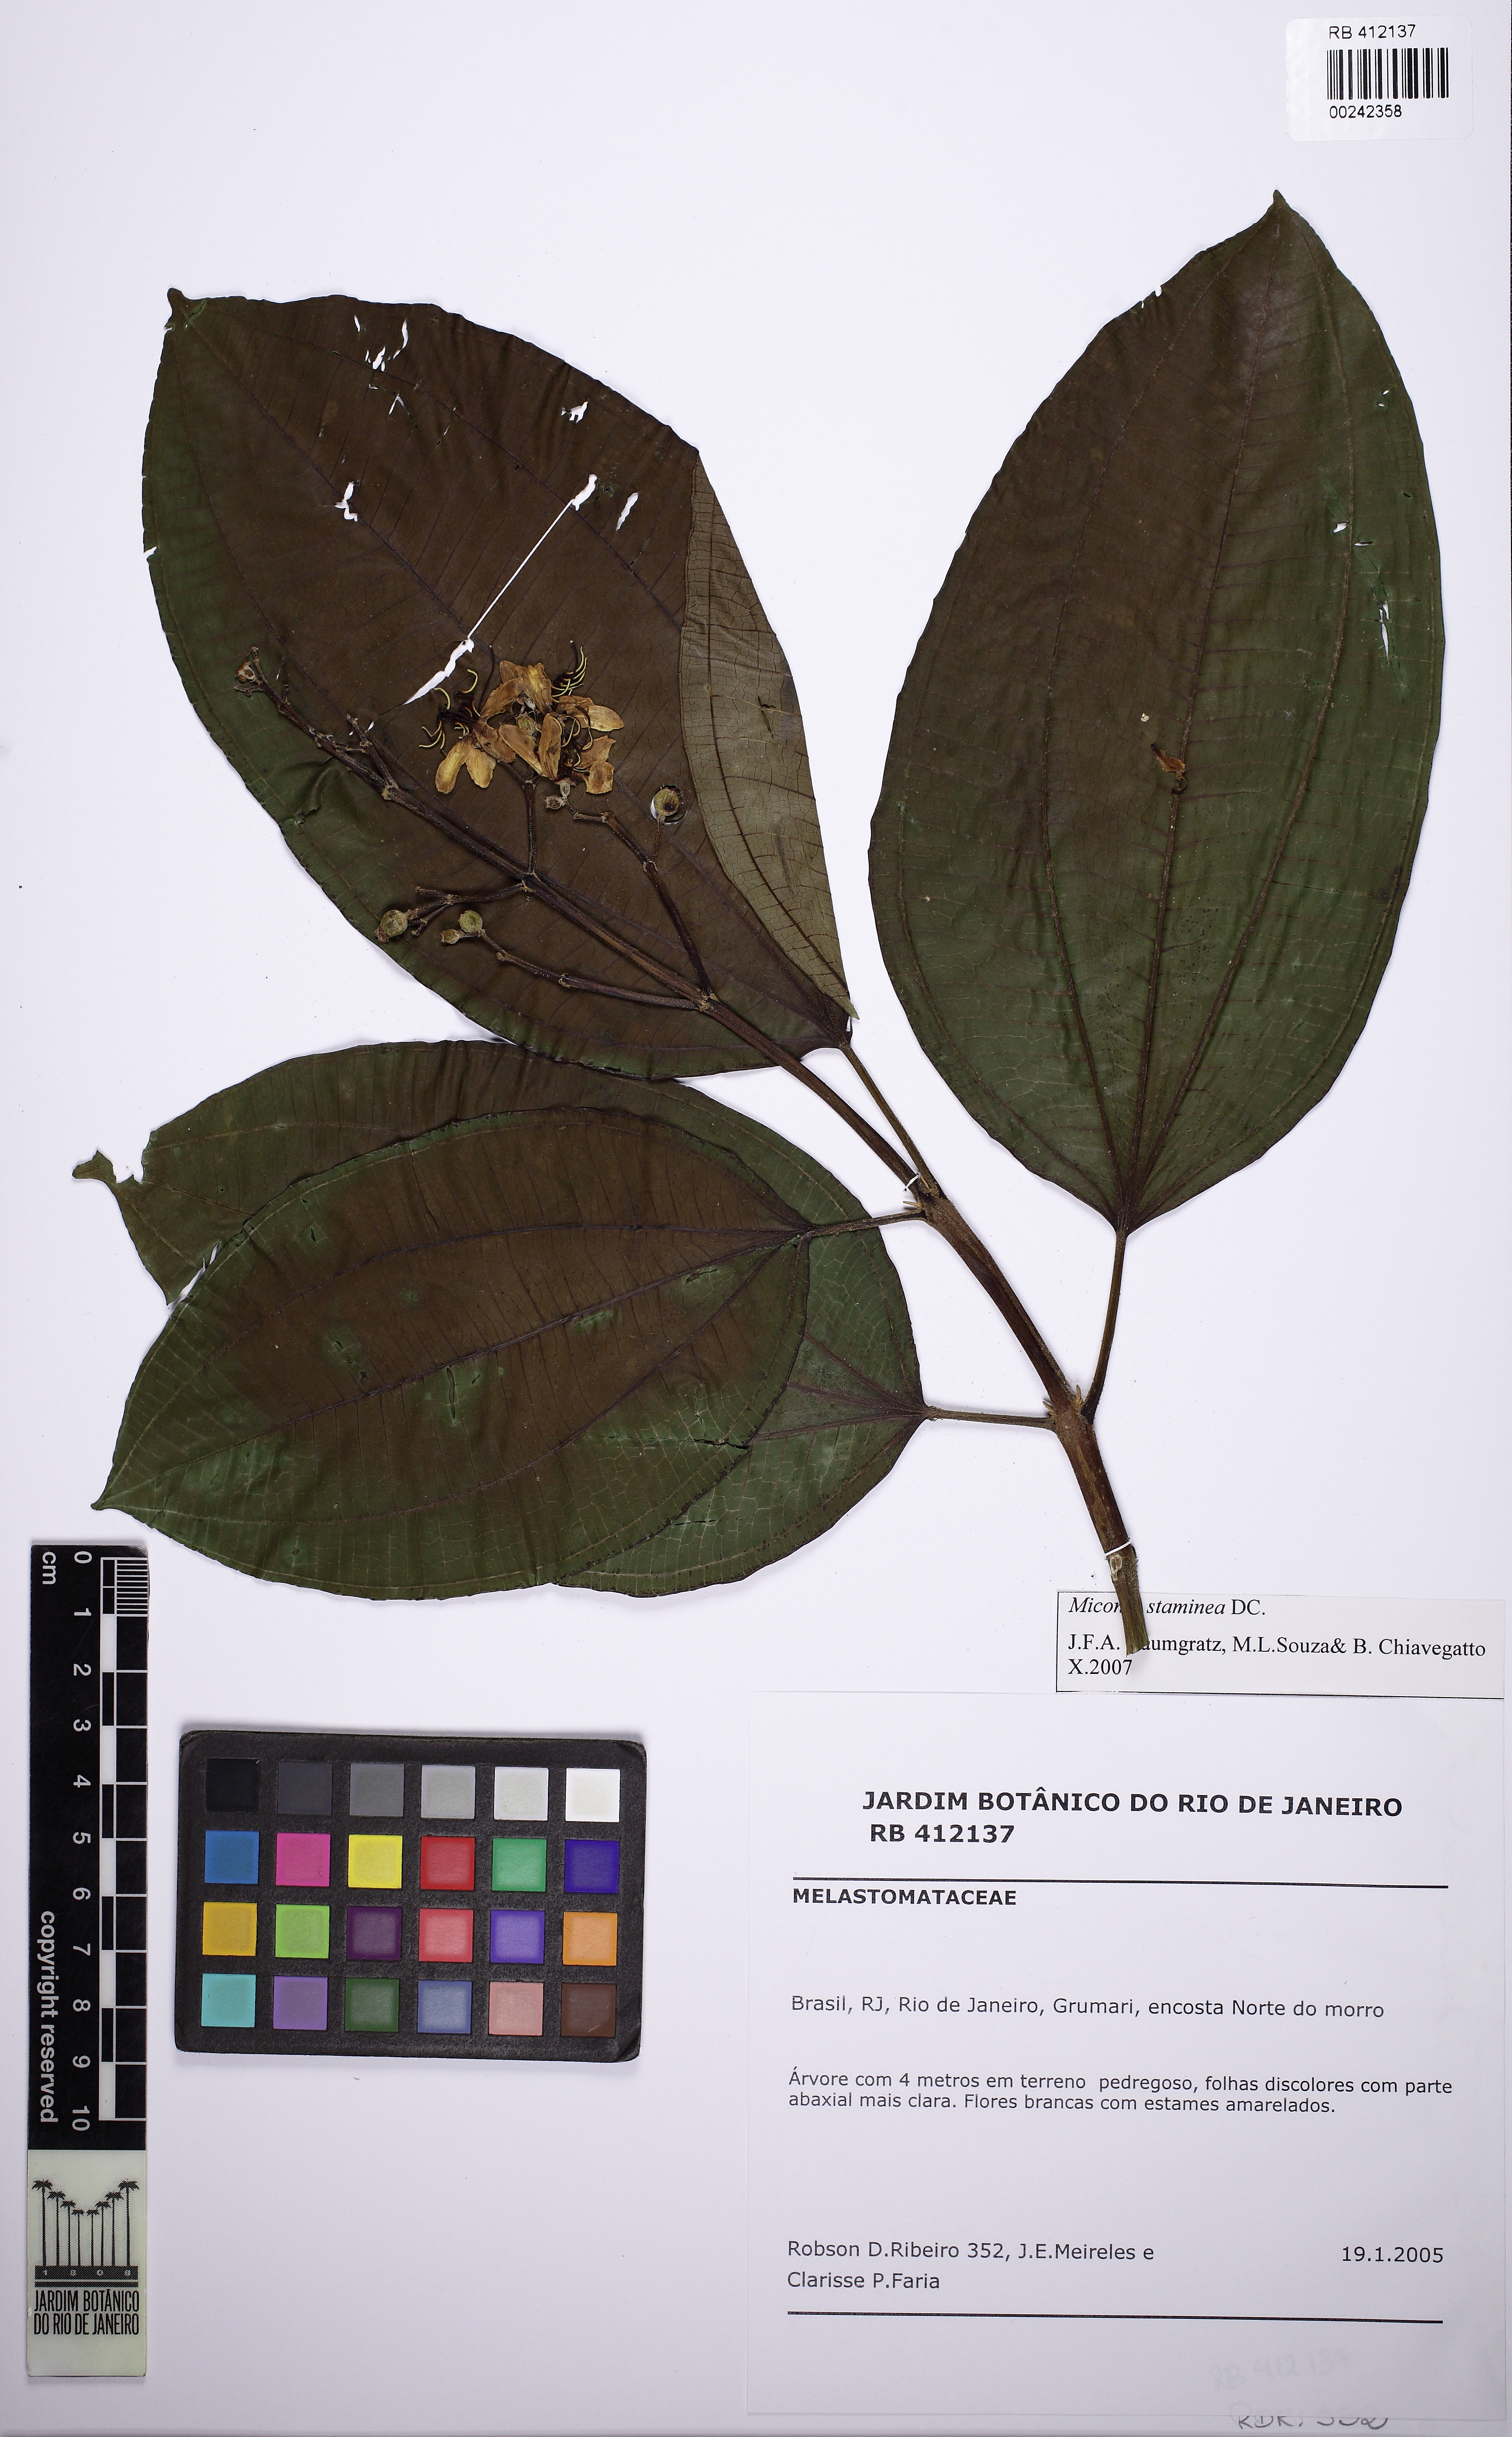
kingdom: Plantae
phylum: Tracheophyta
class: Magnoliopsida
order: Myrtales
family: Melastomataceae
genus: Miconia
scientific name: Miconia staminea
